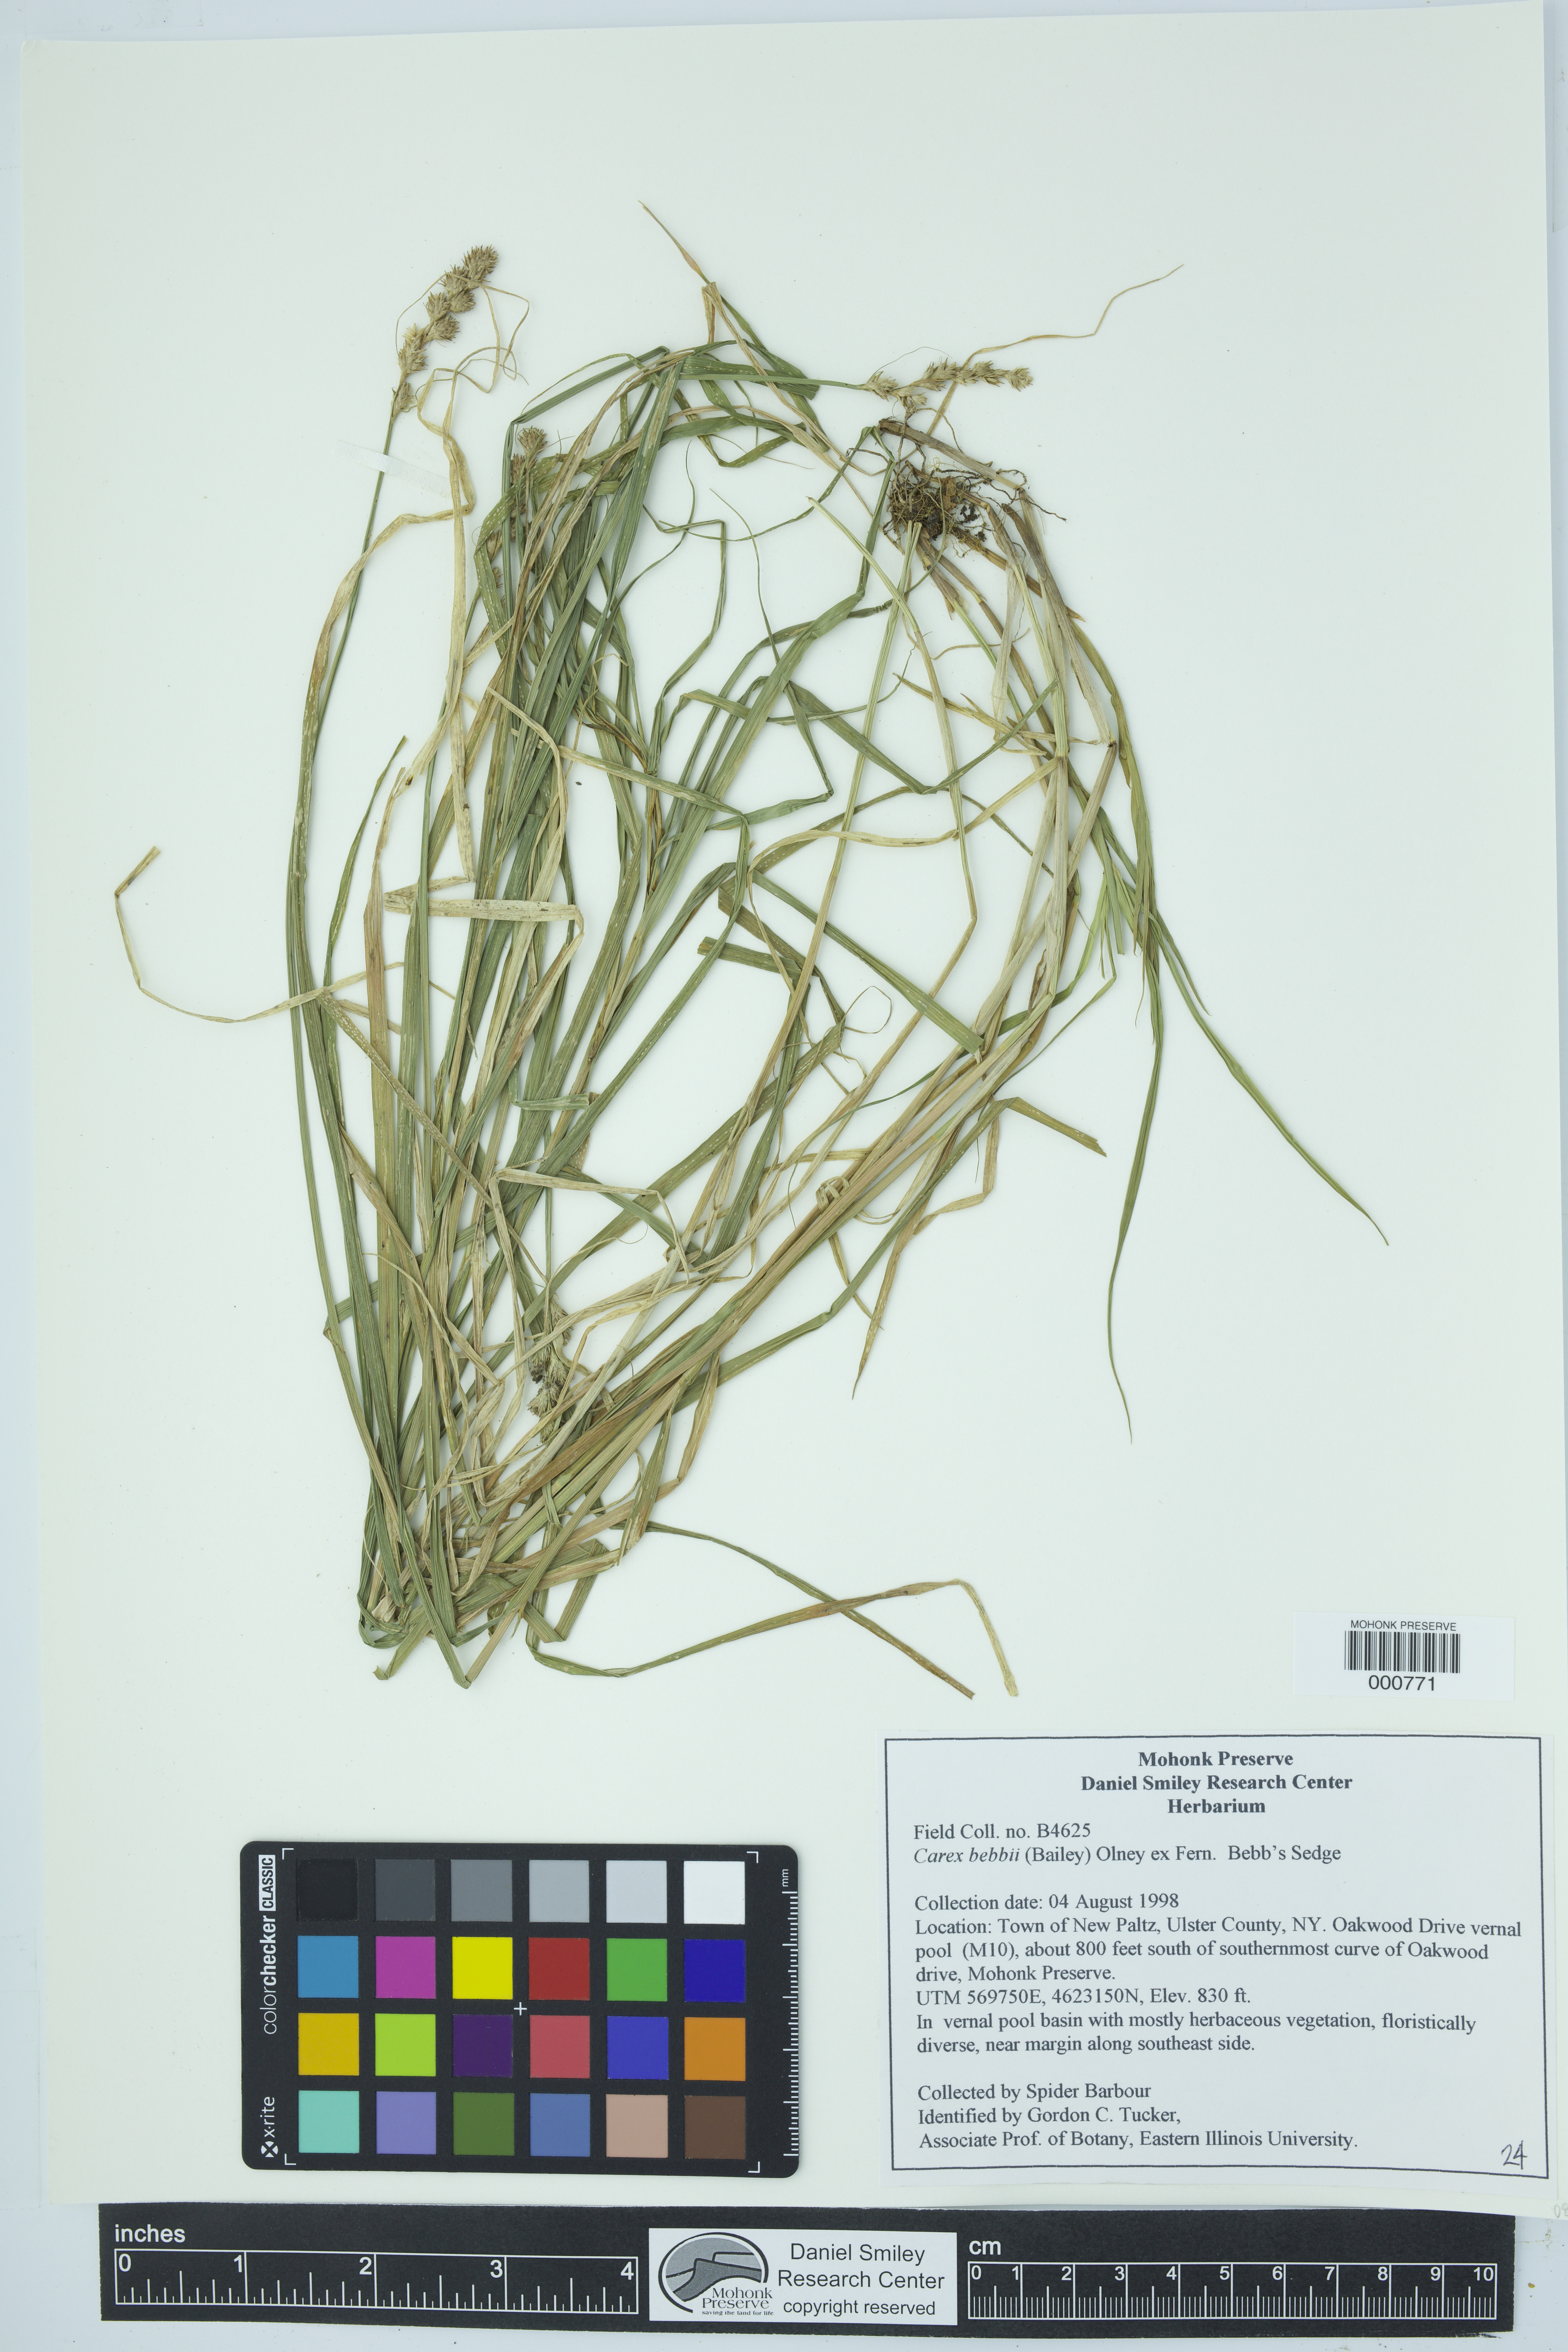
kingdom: Plantae
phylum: Tracheophyta
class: Liliopsida
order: Poales
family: Cyperaceae
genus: Carex
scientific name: Carex bebbii
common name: Bebb's sedge
